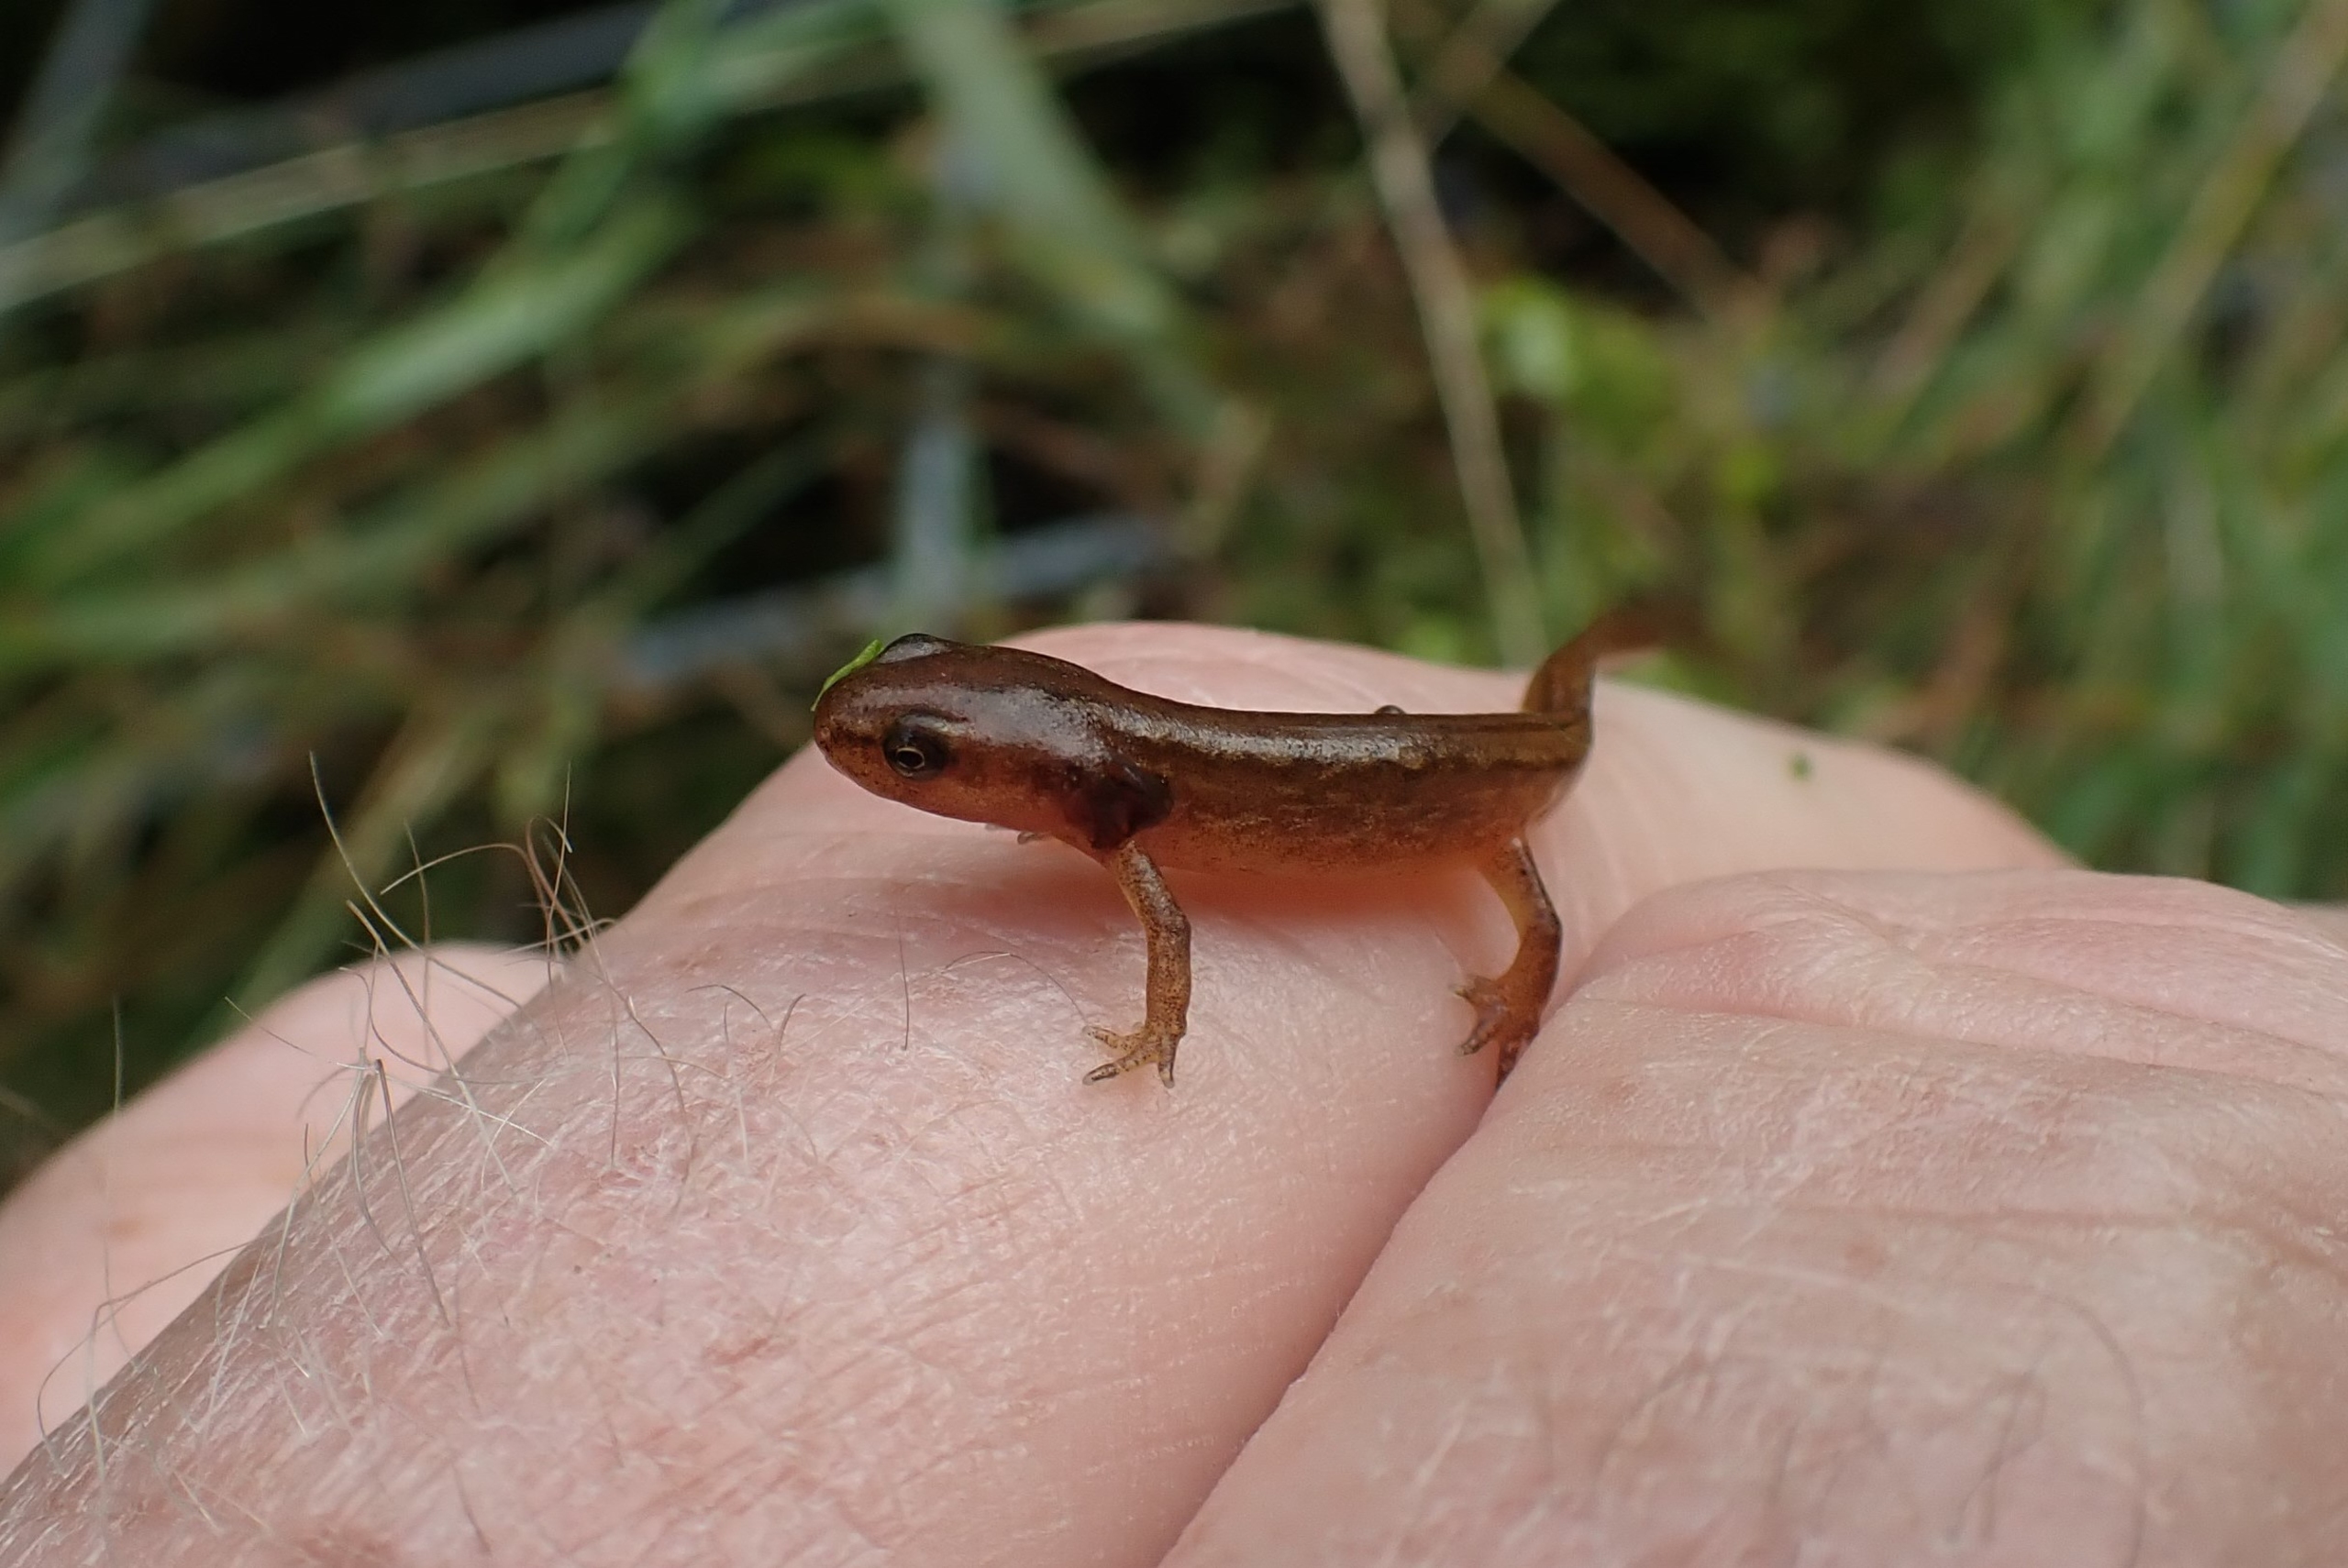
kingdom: Animalia
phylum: Chordata
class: Amphibia
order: Caudata
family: Salamandridae
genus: Lissotriton
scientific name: Lissotriton vulgaris
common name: Lille vandsalamander
